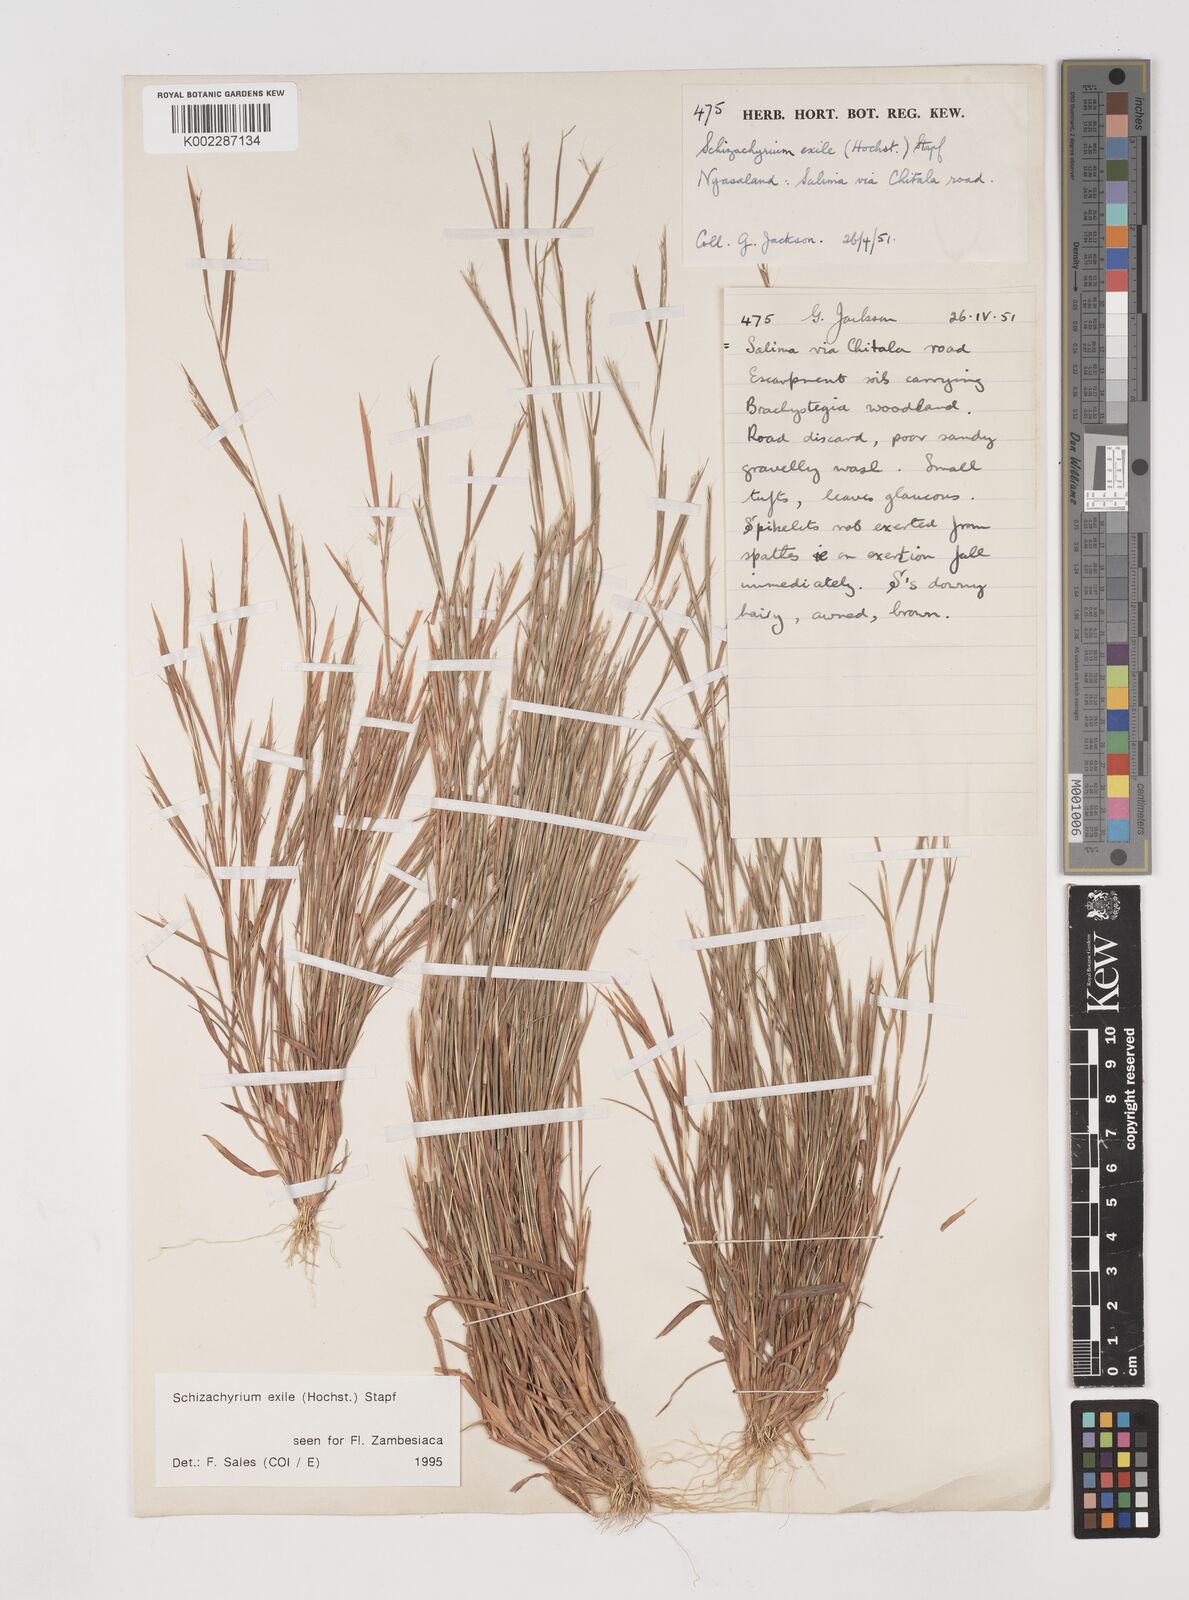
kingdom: Plantae
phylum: Tracheophyta
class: Liliopsida
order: Poales
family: Poaceae
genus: Schizachyrium
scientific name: Schizachyrium exile
